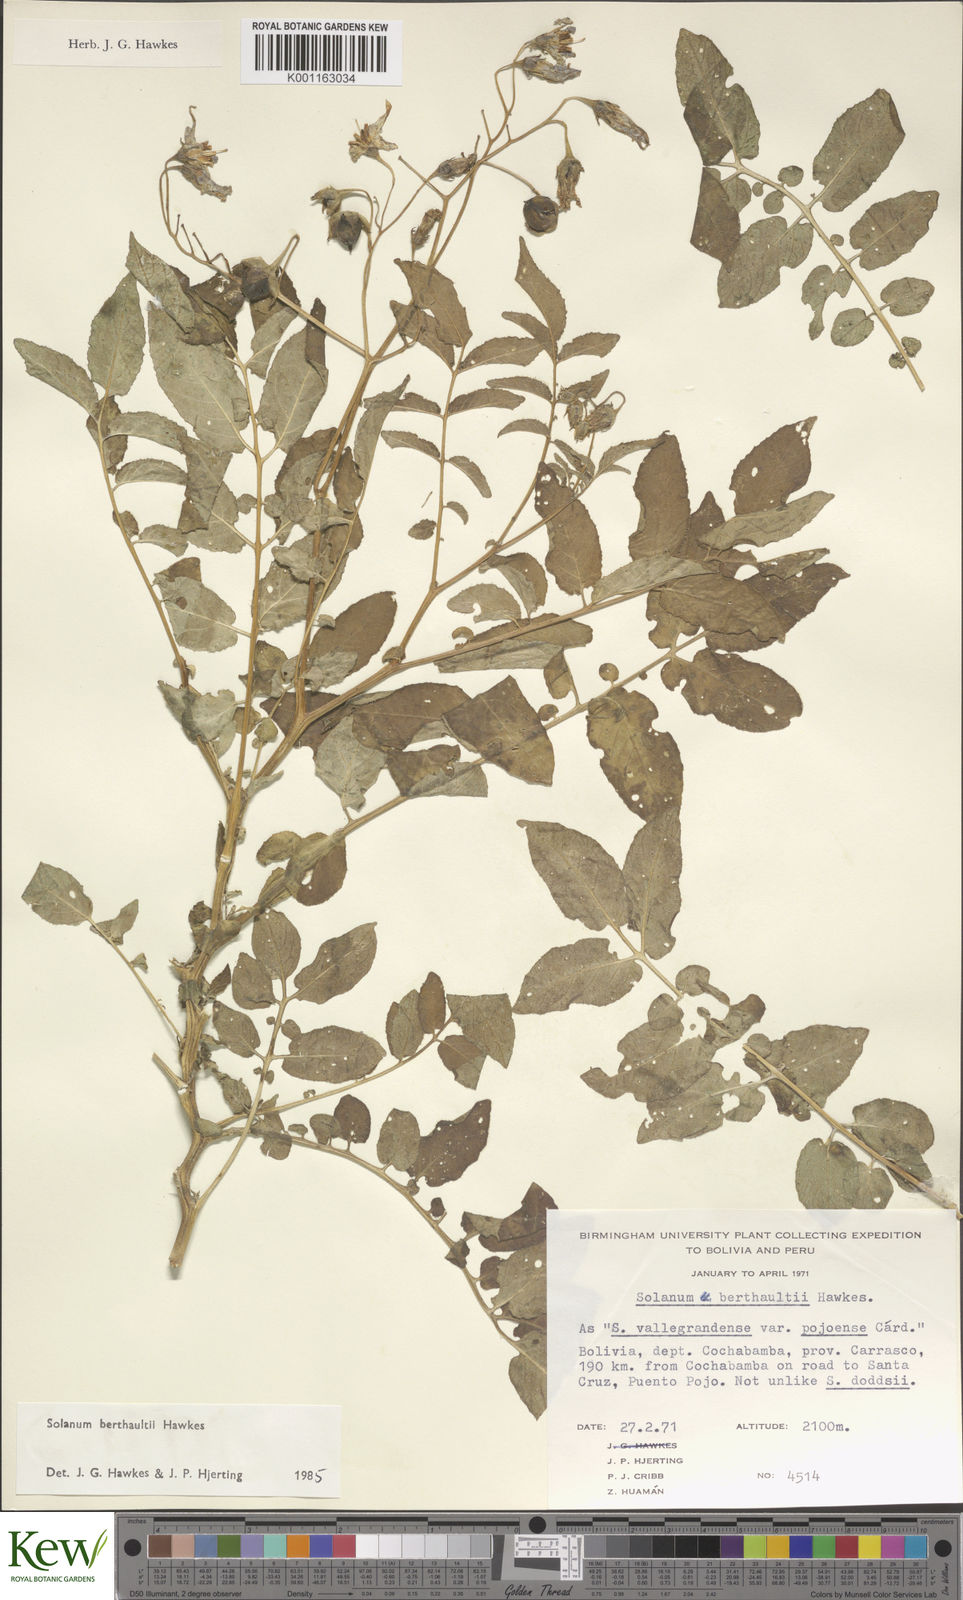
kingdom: Plantae
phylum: Tracheophyta
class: Magnoliopsida
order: Solanales
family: Solanaceae
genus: Solanum
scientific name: Solanum berthaultii
